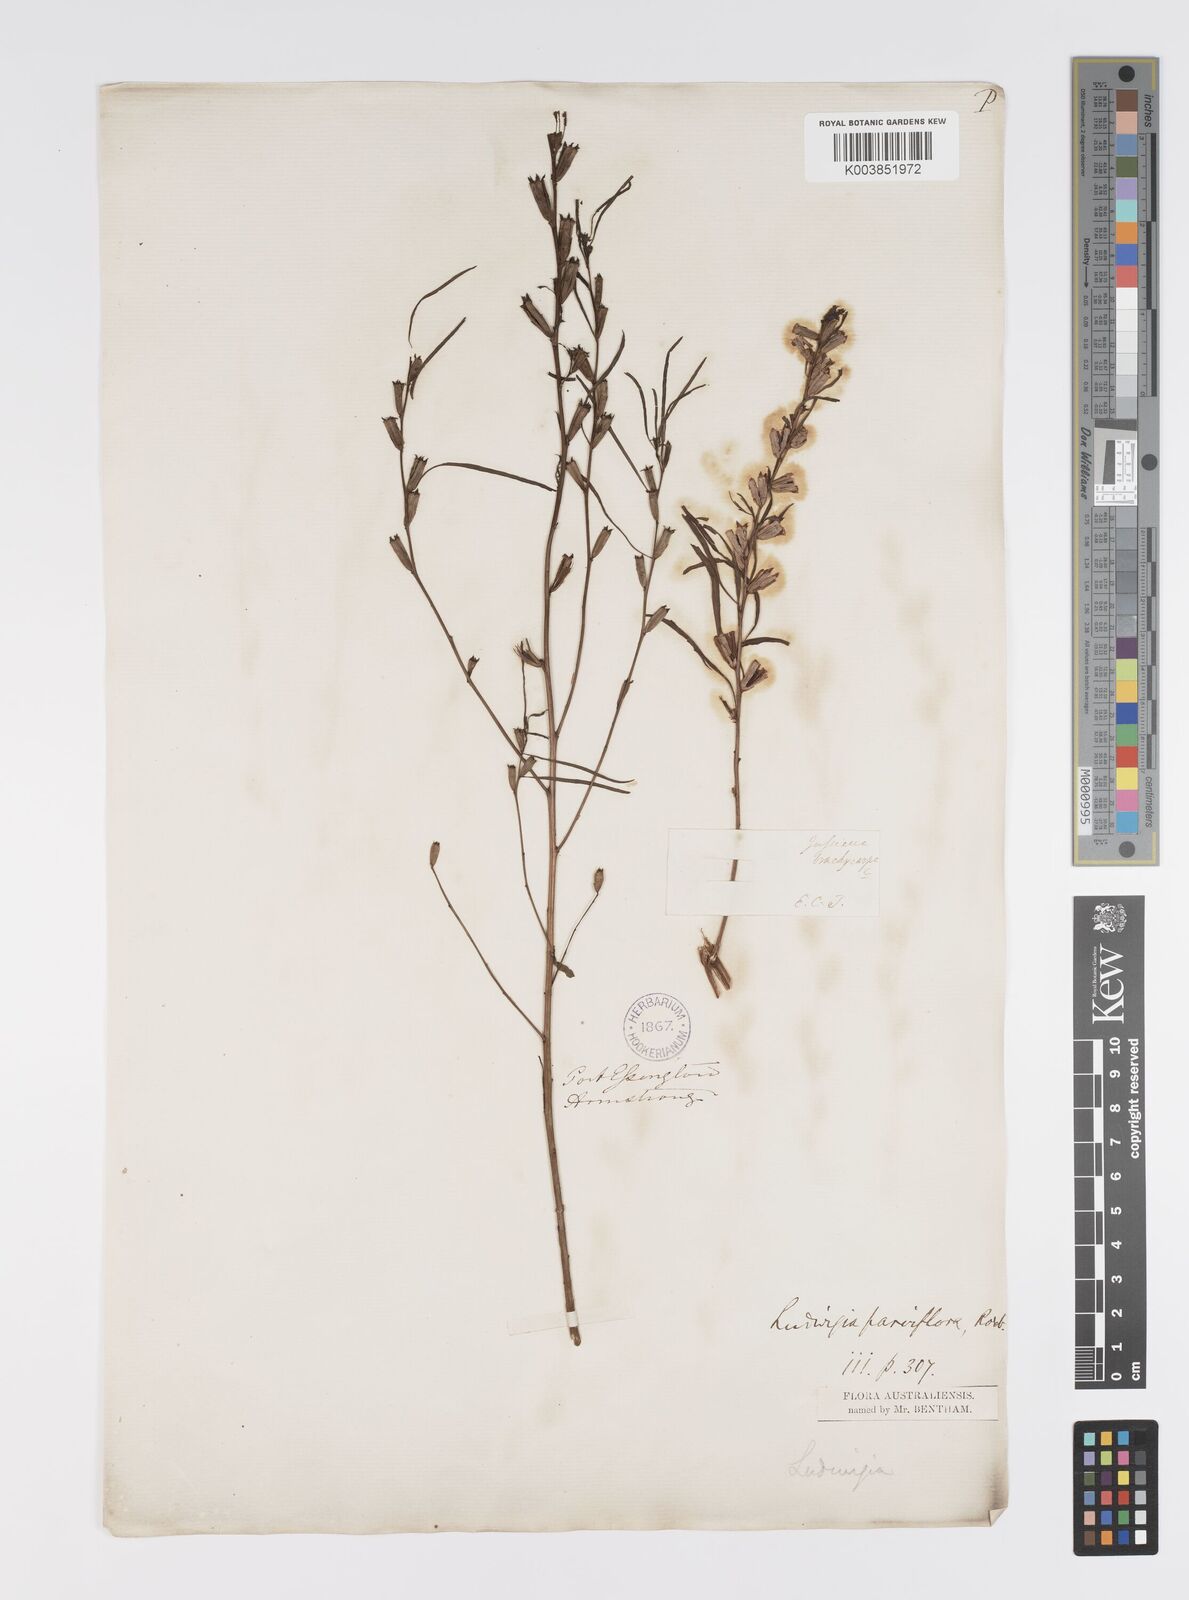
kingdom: Plantae
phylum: Tracheophyta
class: Magnoliopsida
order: Myrtales
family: Onagraceae
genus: Ludwigia
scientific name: Ludwigia perennis
